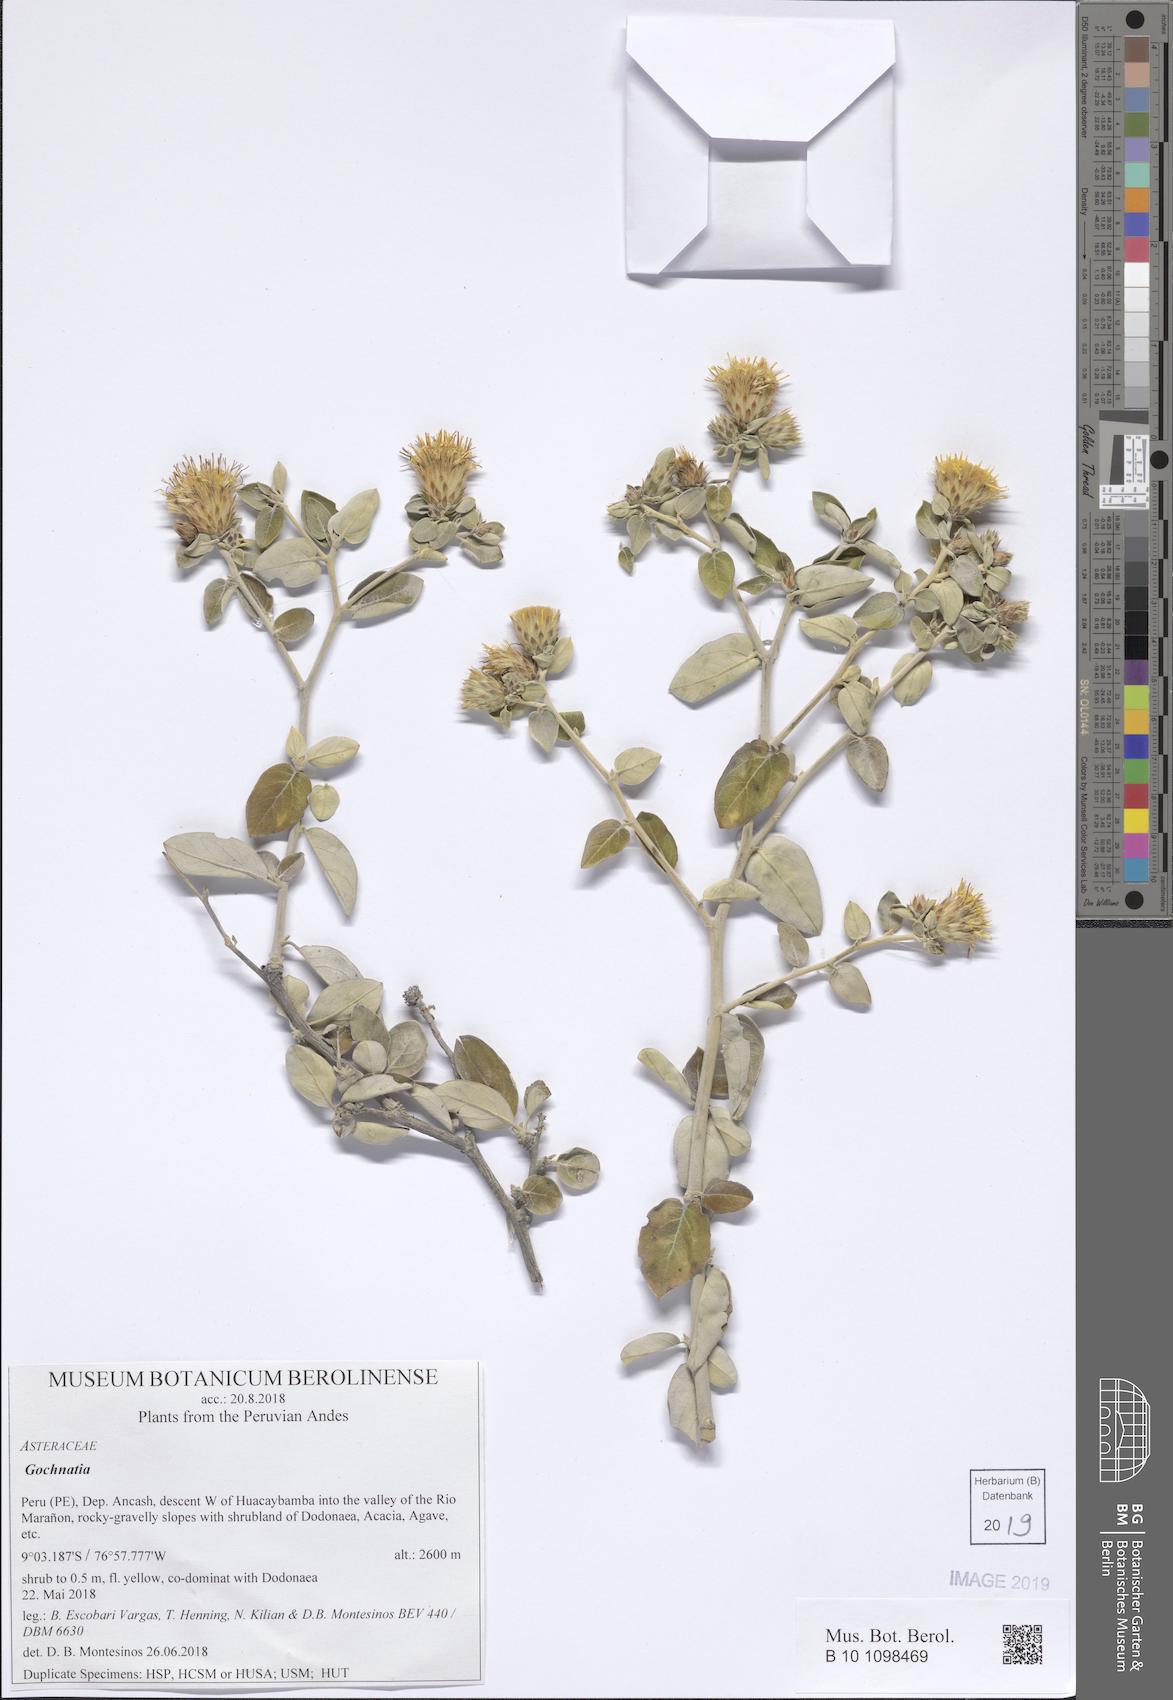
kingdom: Plantae
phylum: Tracheophyta
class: Magnoliopsida
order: Asterales
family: Asteraceae
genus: Gochnatia
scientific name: Gochnatia
